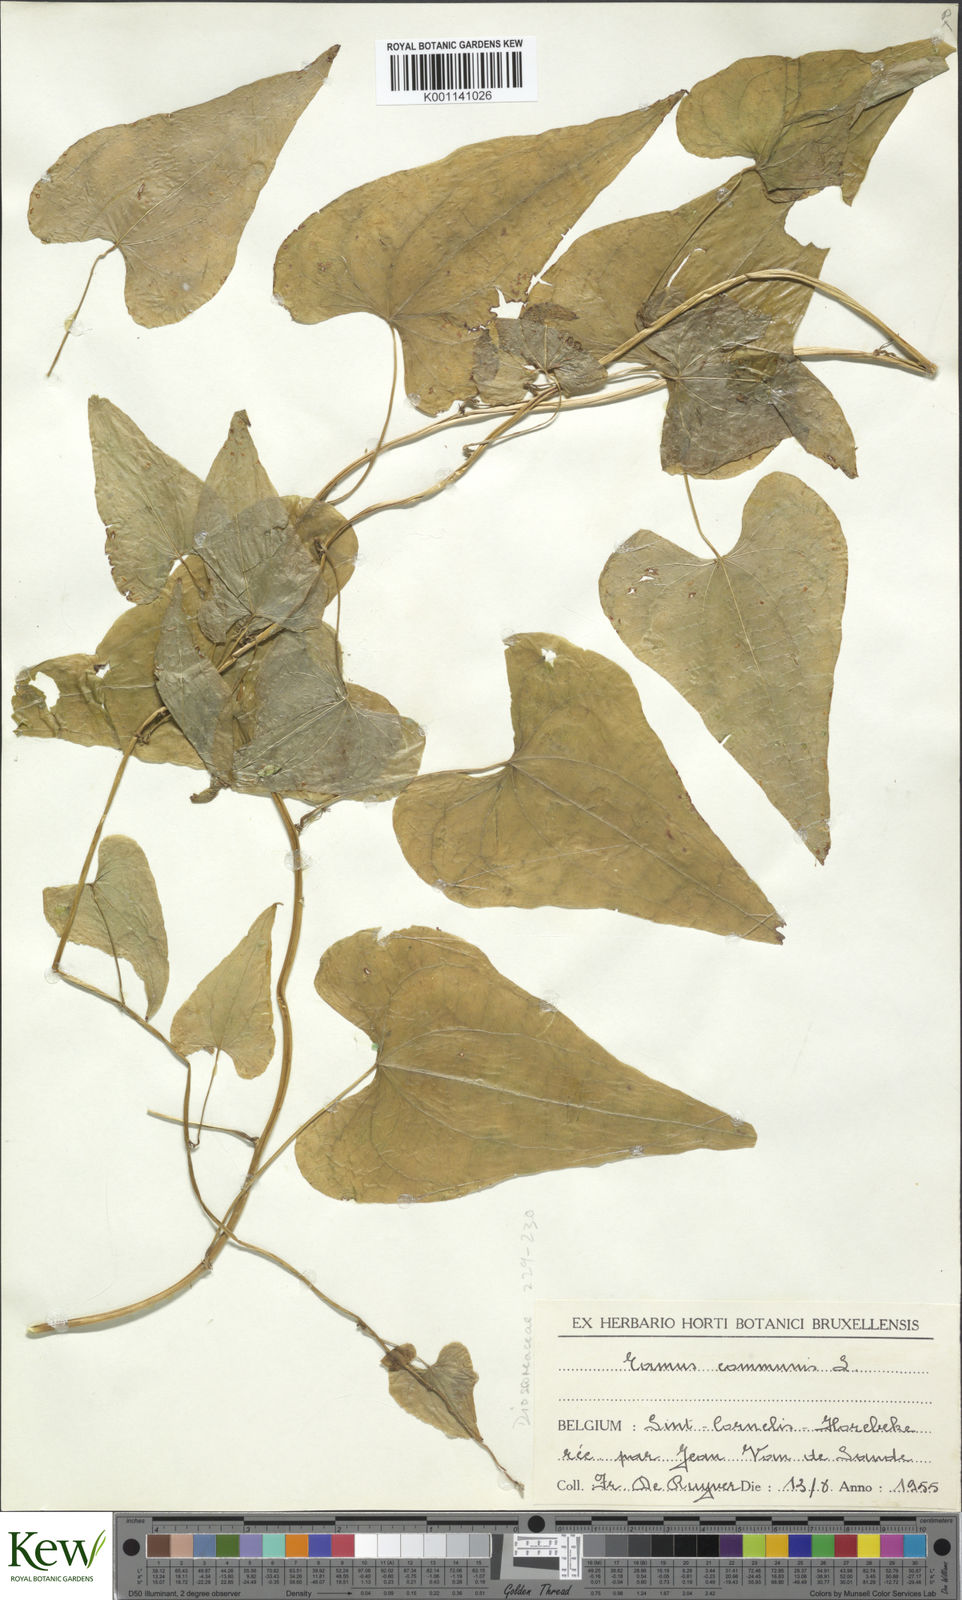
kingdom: Plantae
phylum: Tracheophyta
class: Liliopsida
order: Dioscoreales
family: Dioscoreaceae
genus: Dioscorea
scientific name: Dioscorea communis
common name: Black-bindweed
